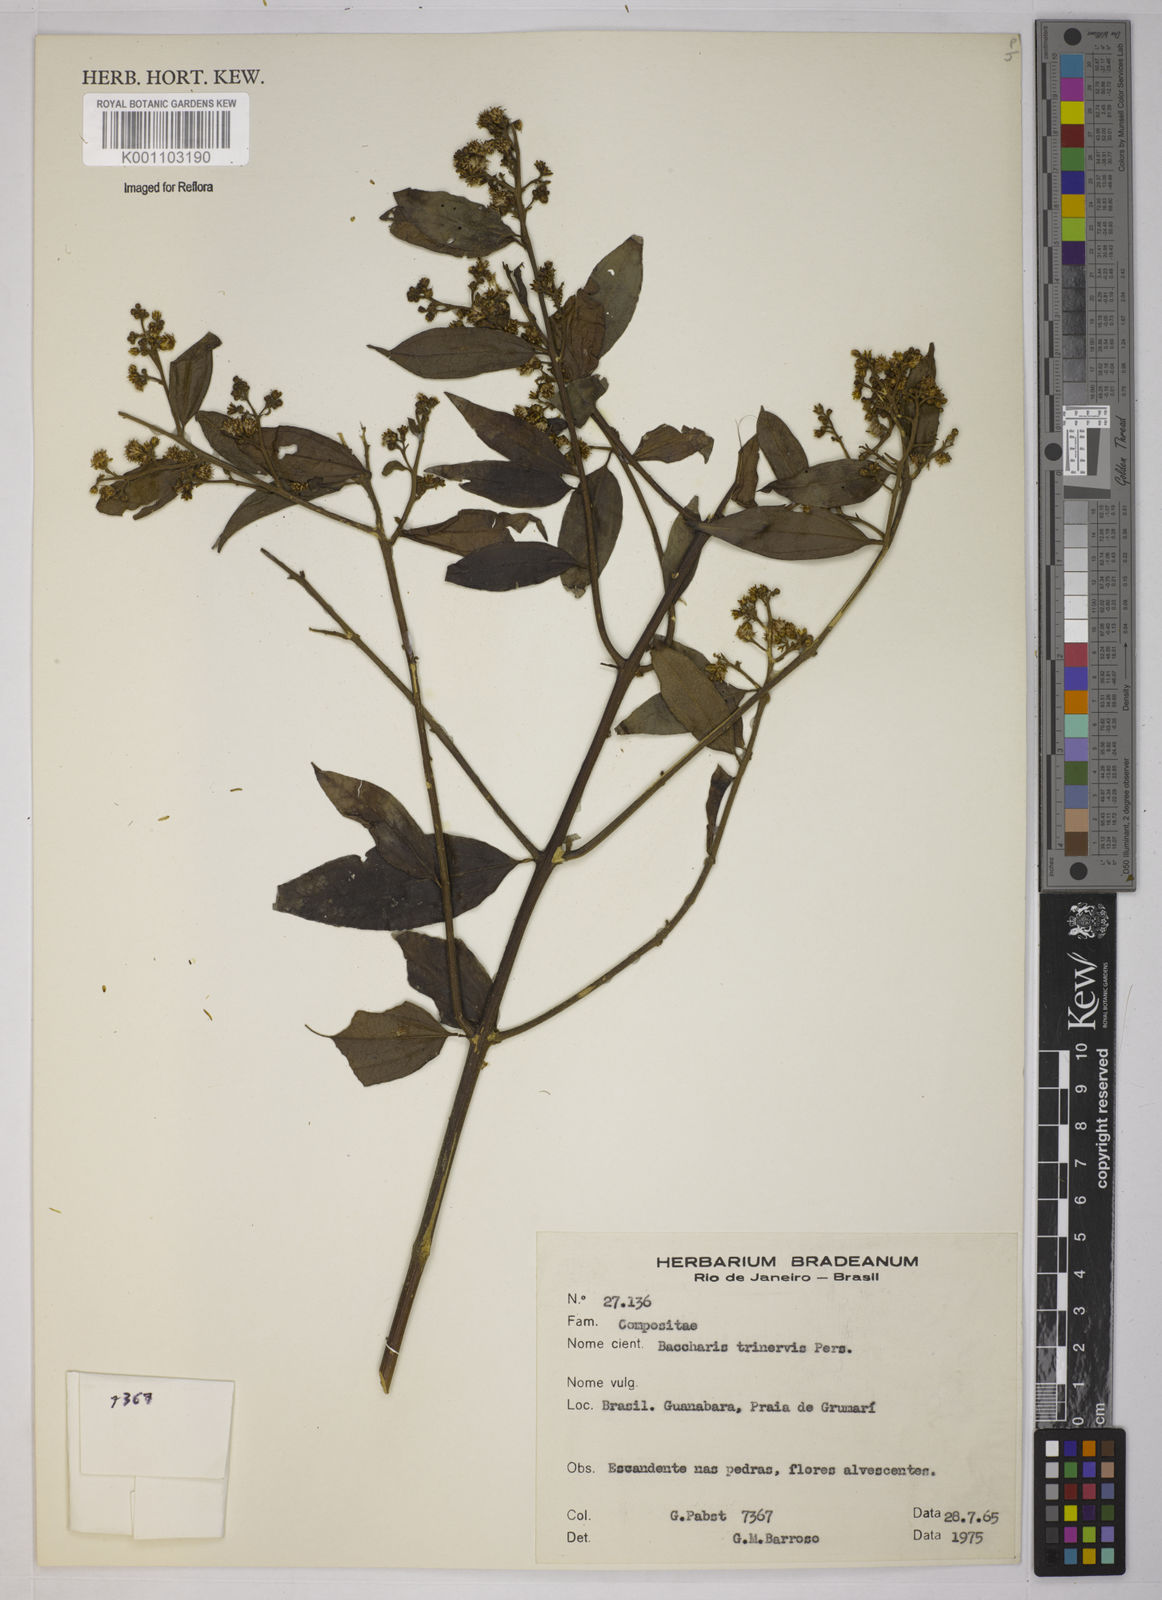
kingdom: Plantae
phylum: Tracheophyta
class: Magnoliopsida
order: Asterales
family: Asteraceae
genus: Baccharis
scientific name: Baccharis trinervis
